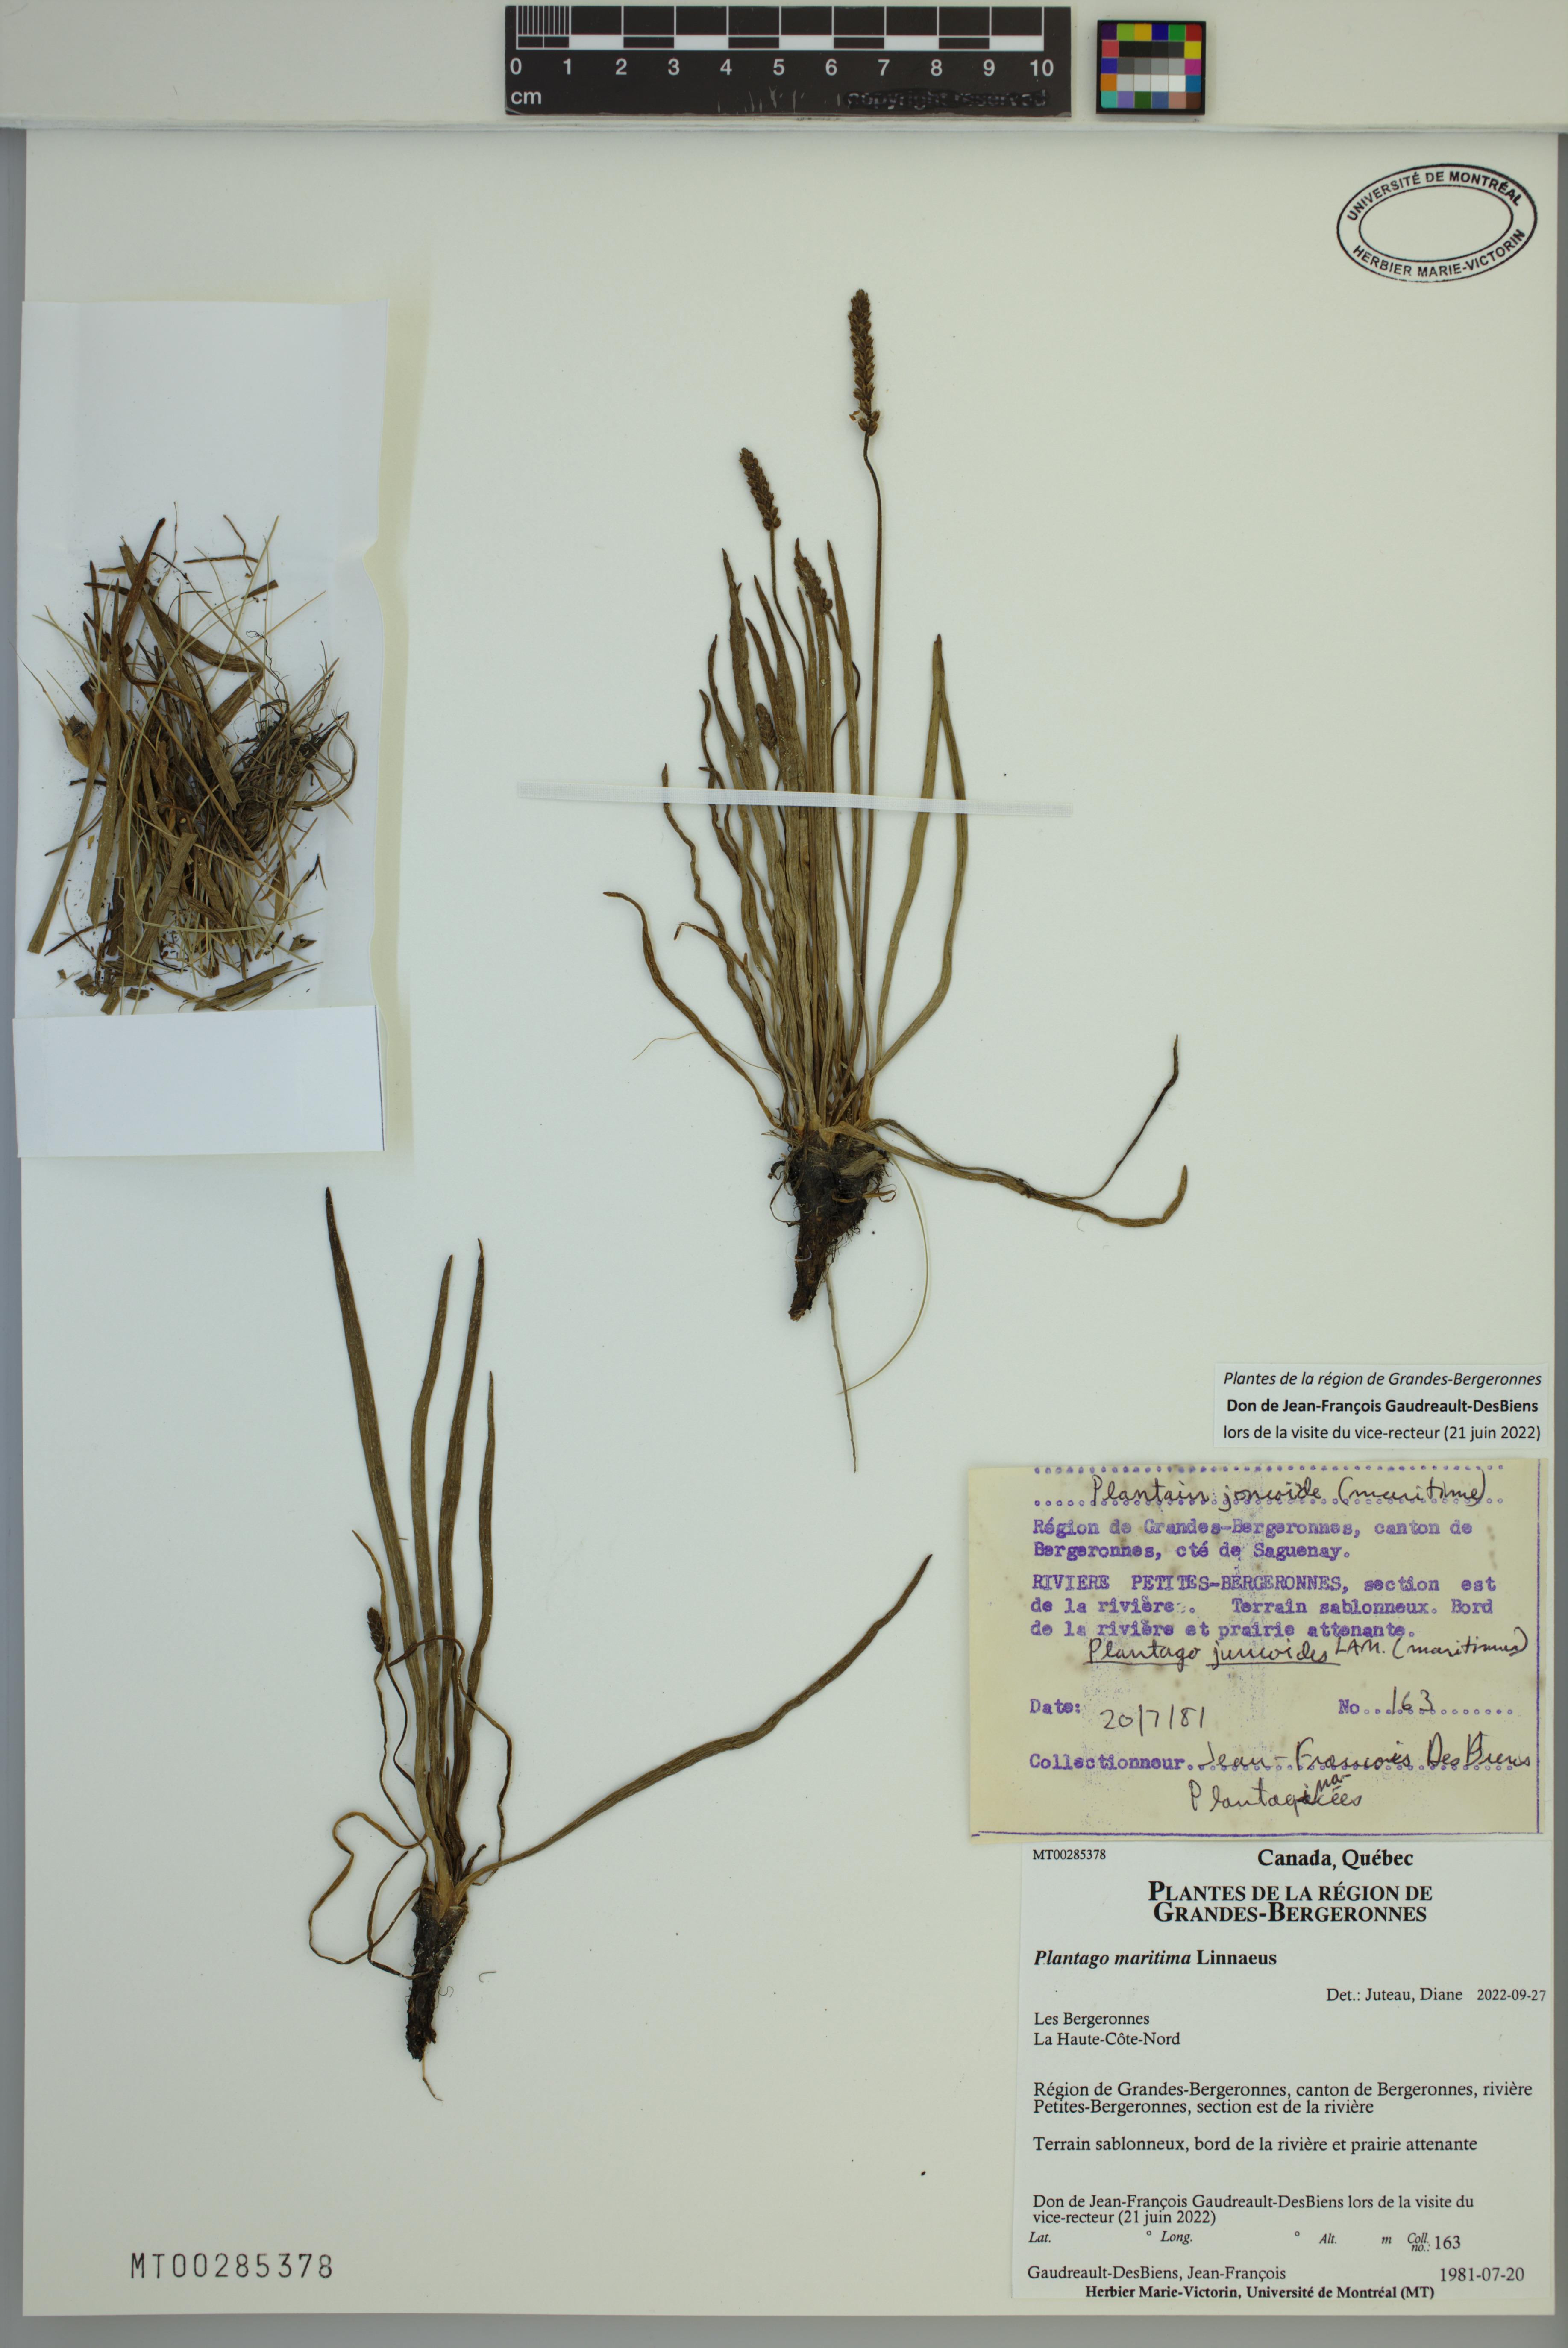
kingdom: Plantae
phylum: Tracheophyta
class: Magnoliopsida
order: Lamiales
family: Plantaginaceae
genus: Plantago
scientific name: Plantago maritima
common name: Sea plantain
